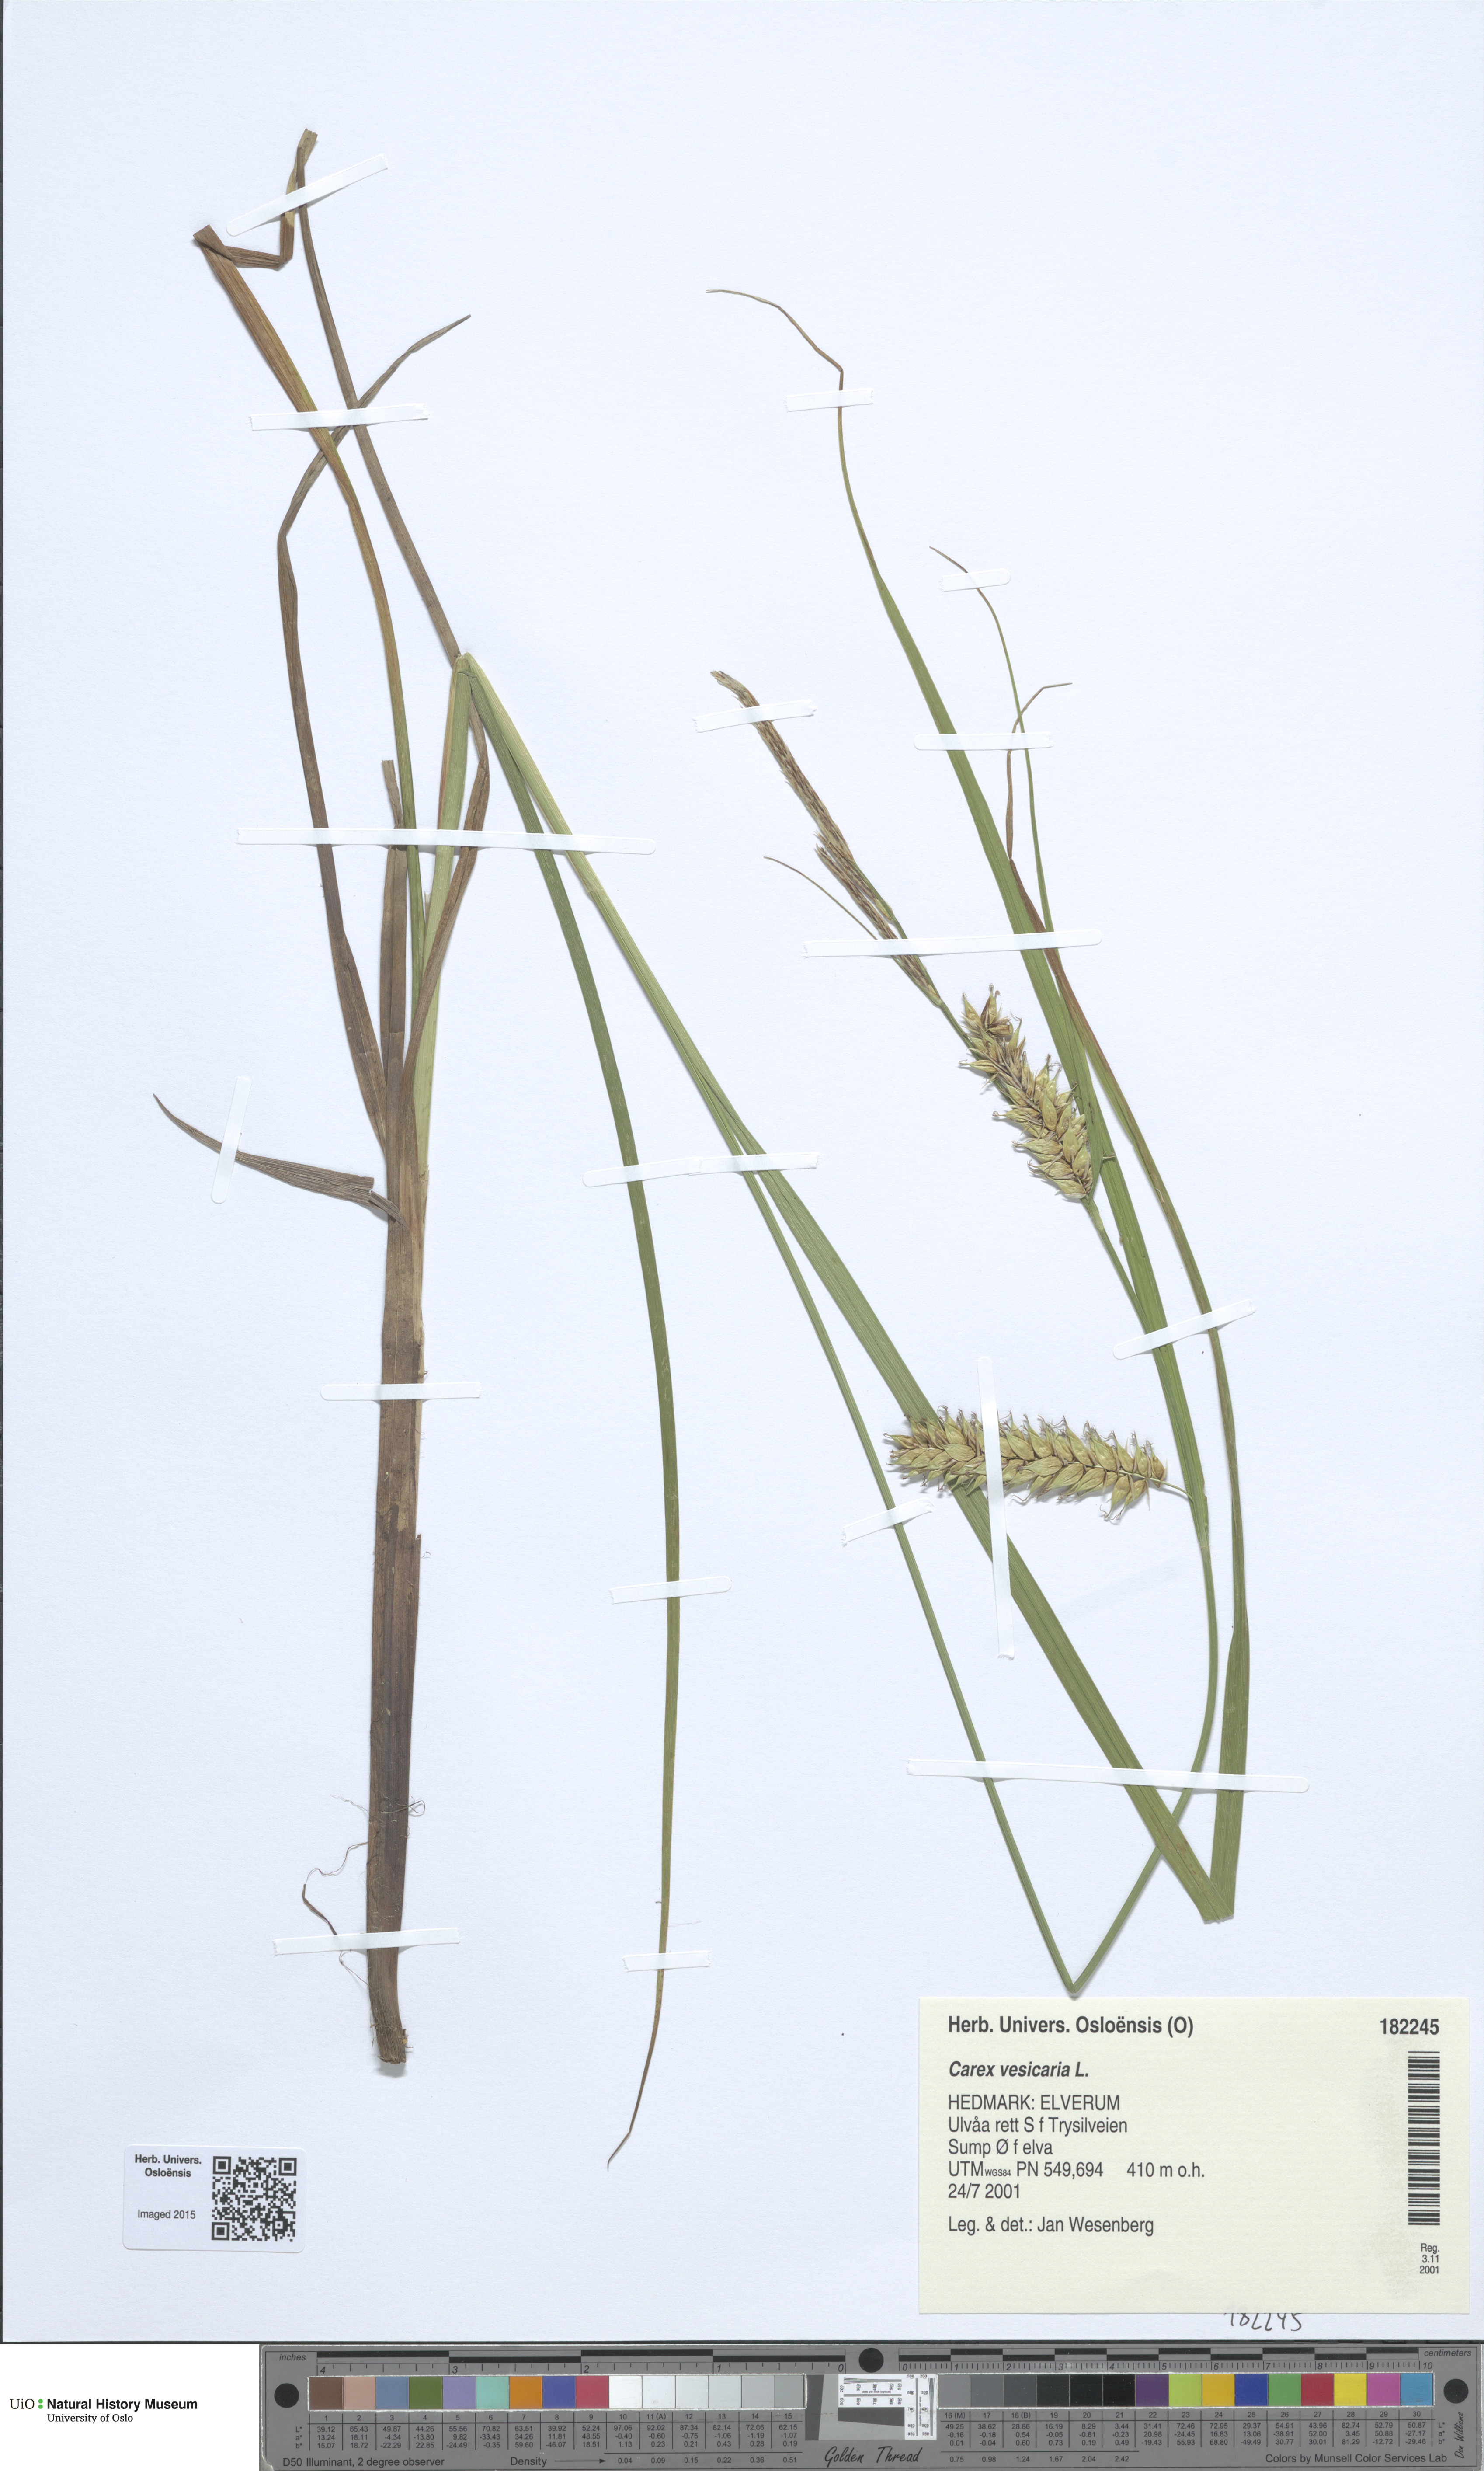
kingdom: Plantae
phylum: Tracheophyta
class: Liliopsida
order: Poales
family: Cyperaceae
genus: Carex
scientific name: Carex vesicaria
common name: Bladder-sedge
